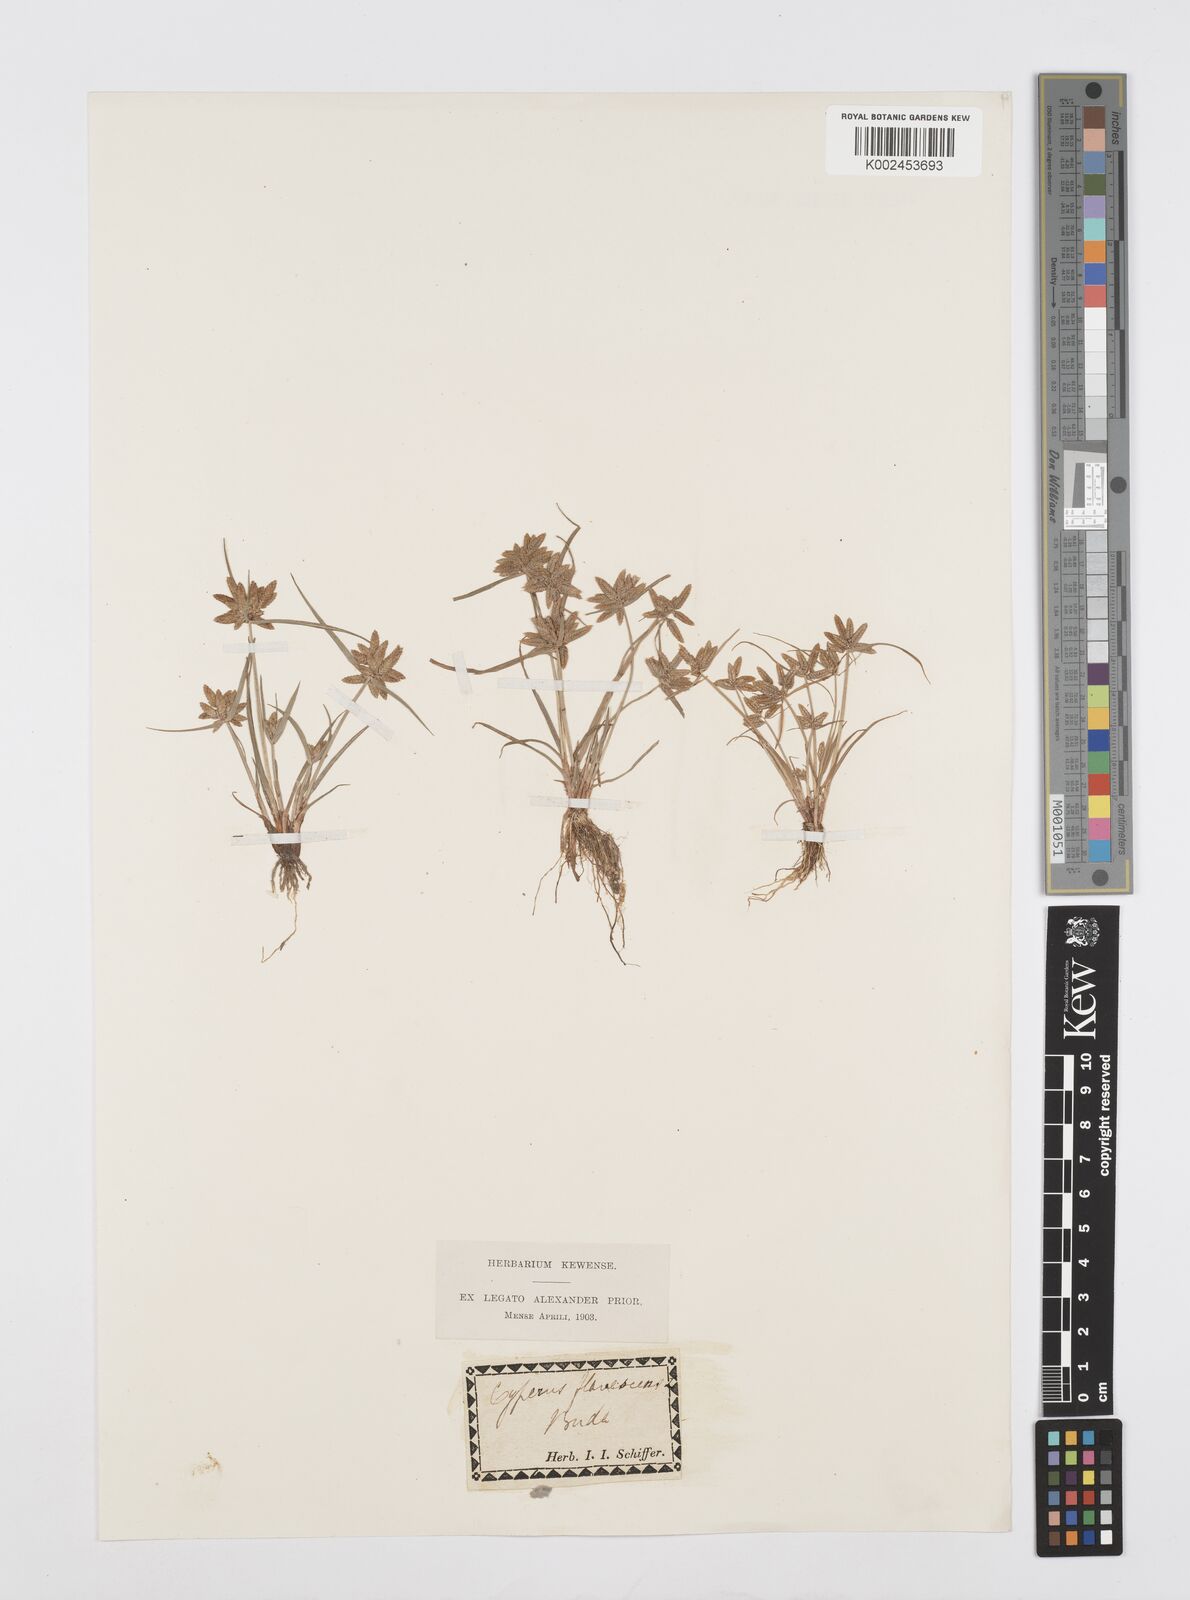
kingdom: Plantae
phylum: Tracheophyta
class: Liliopsida
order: Poales
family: Cyperaceae
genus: Cyperus
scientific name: Cyperus flavescens
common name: Yellow galingale
